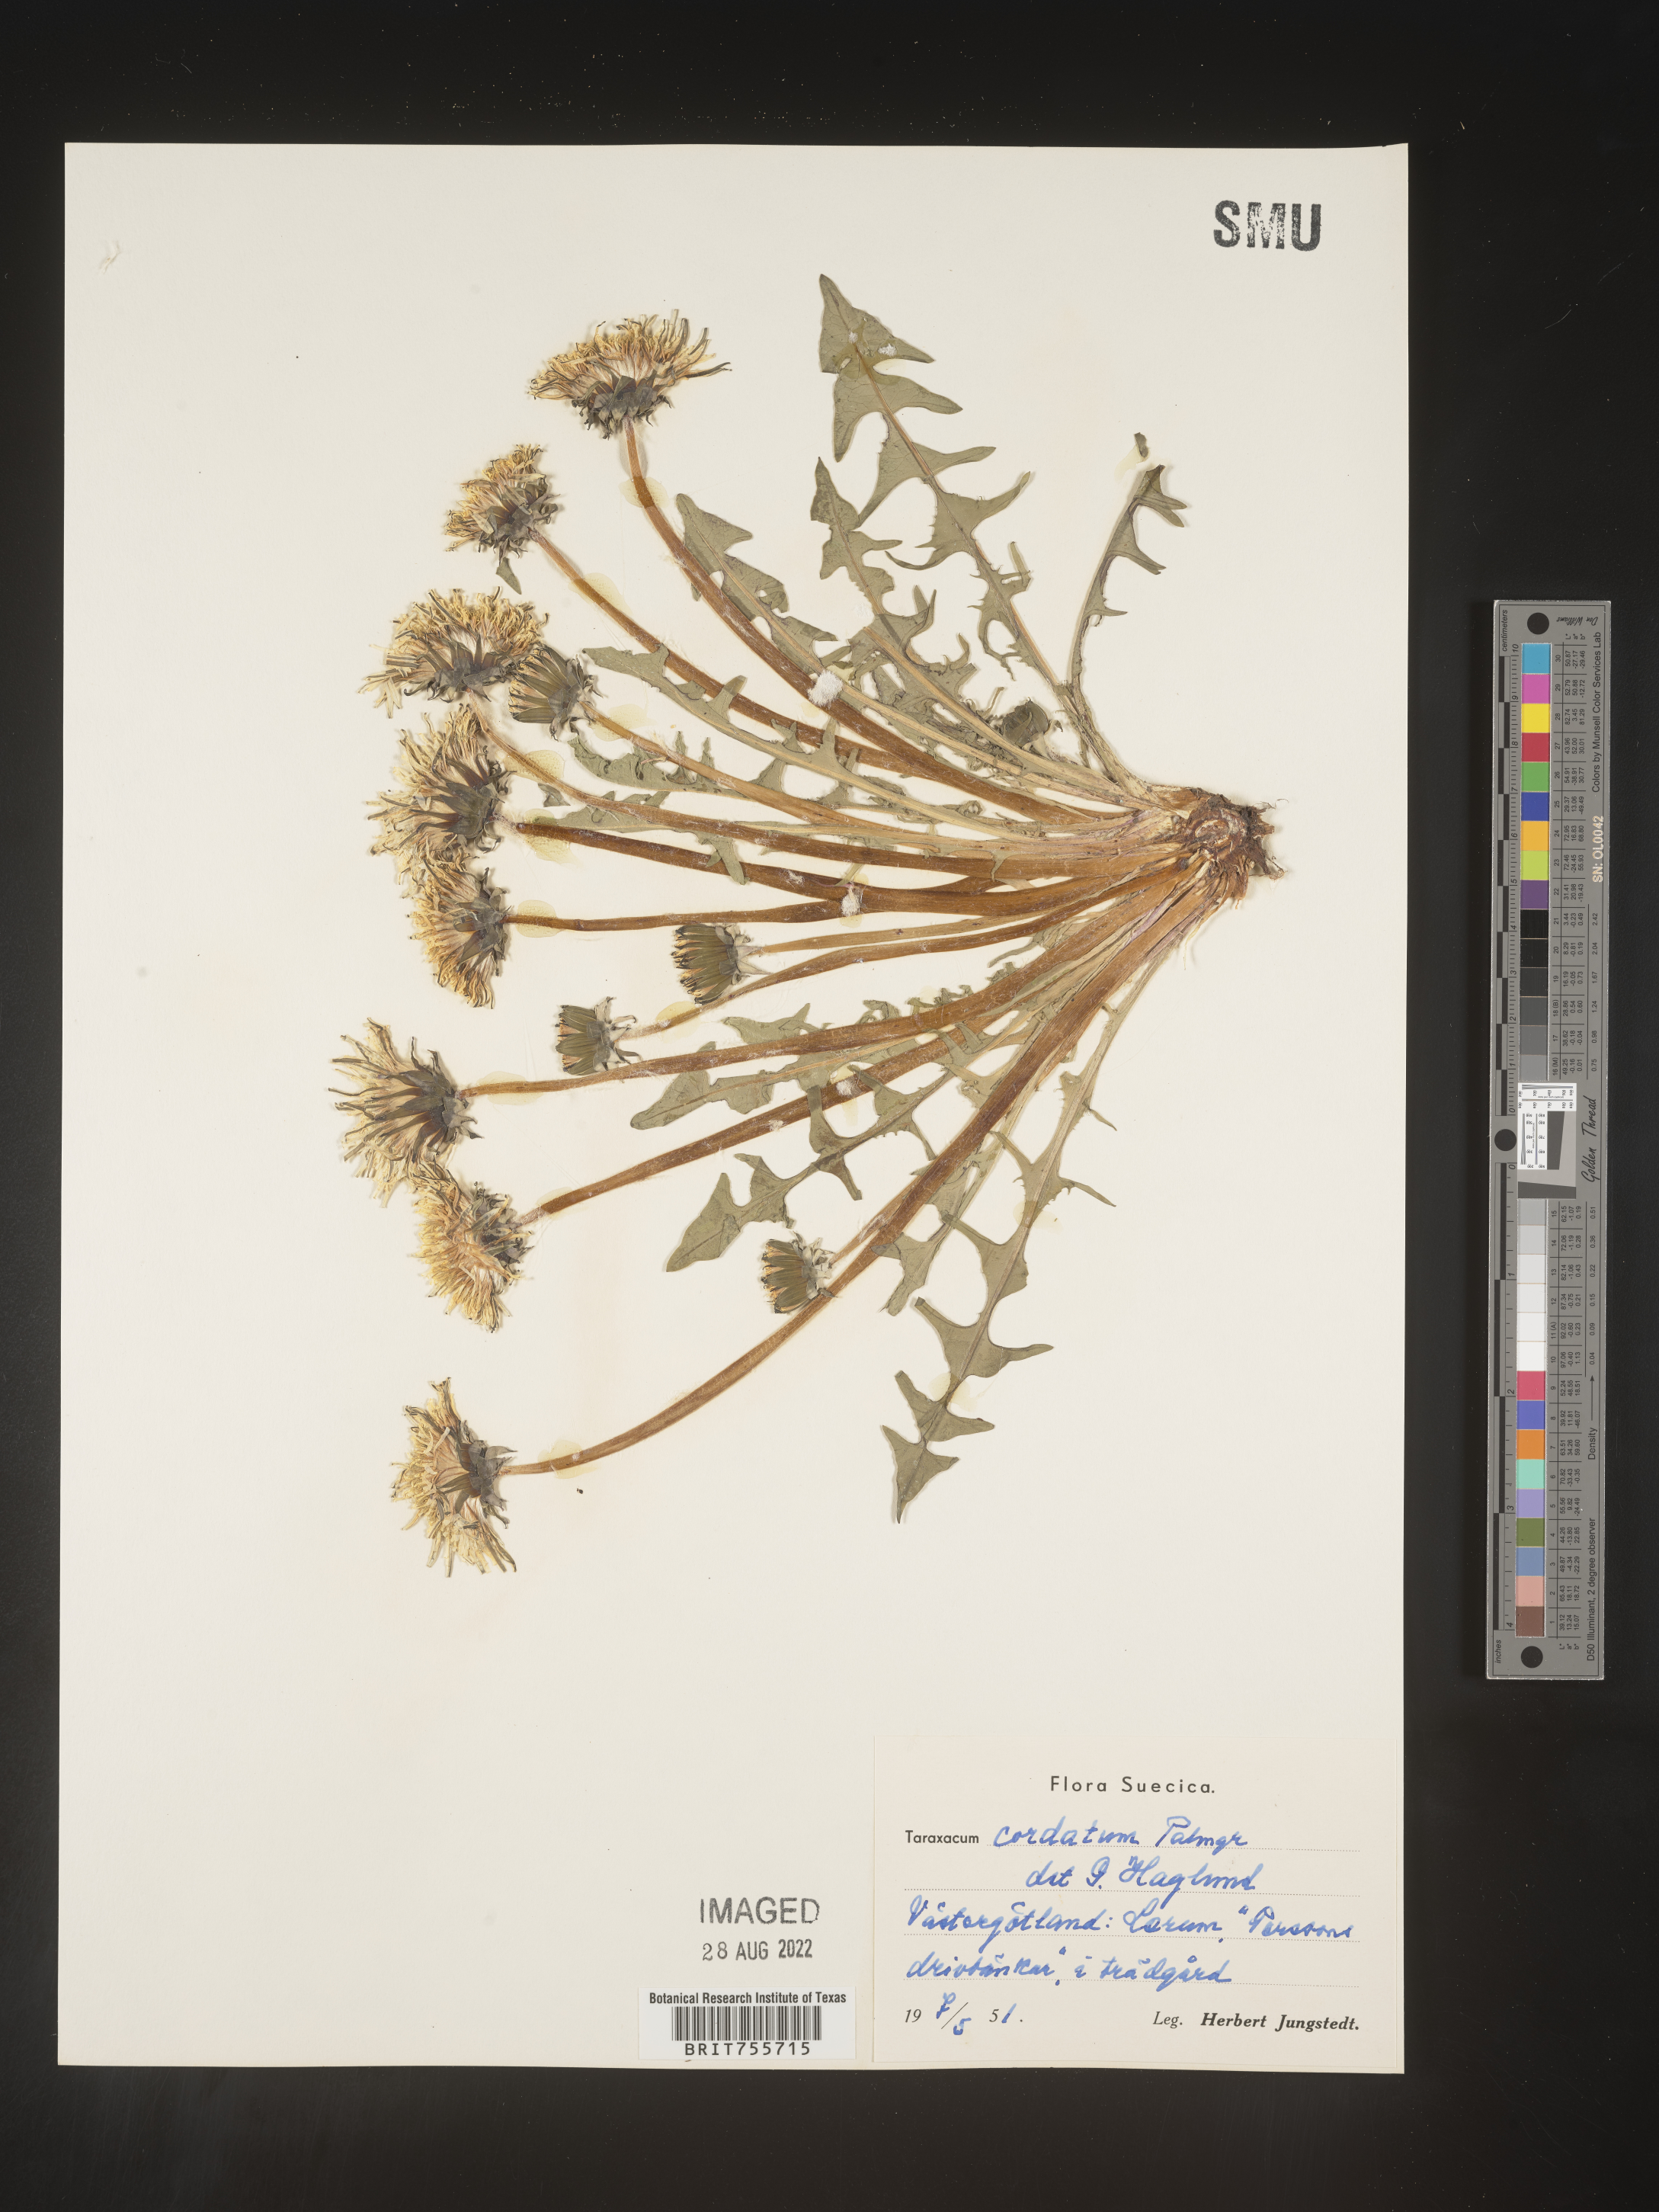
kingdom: Plantae
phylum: Tracheophyta
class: Magnoliopsida
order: Asterales
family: Asteraceae
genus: Taraxacum
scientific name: Taraxacum
